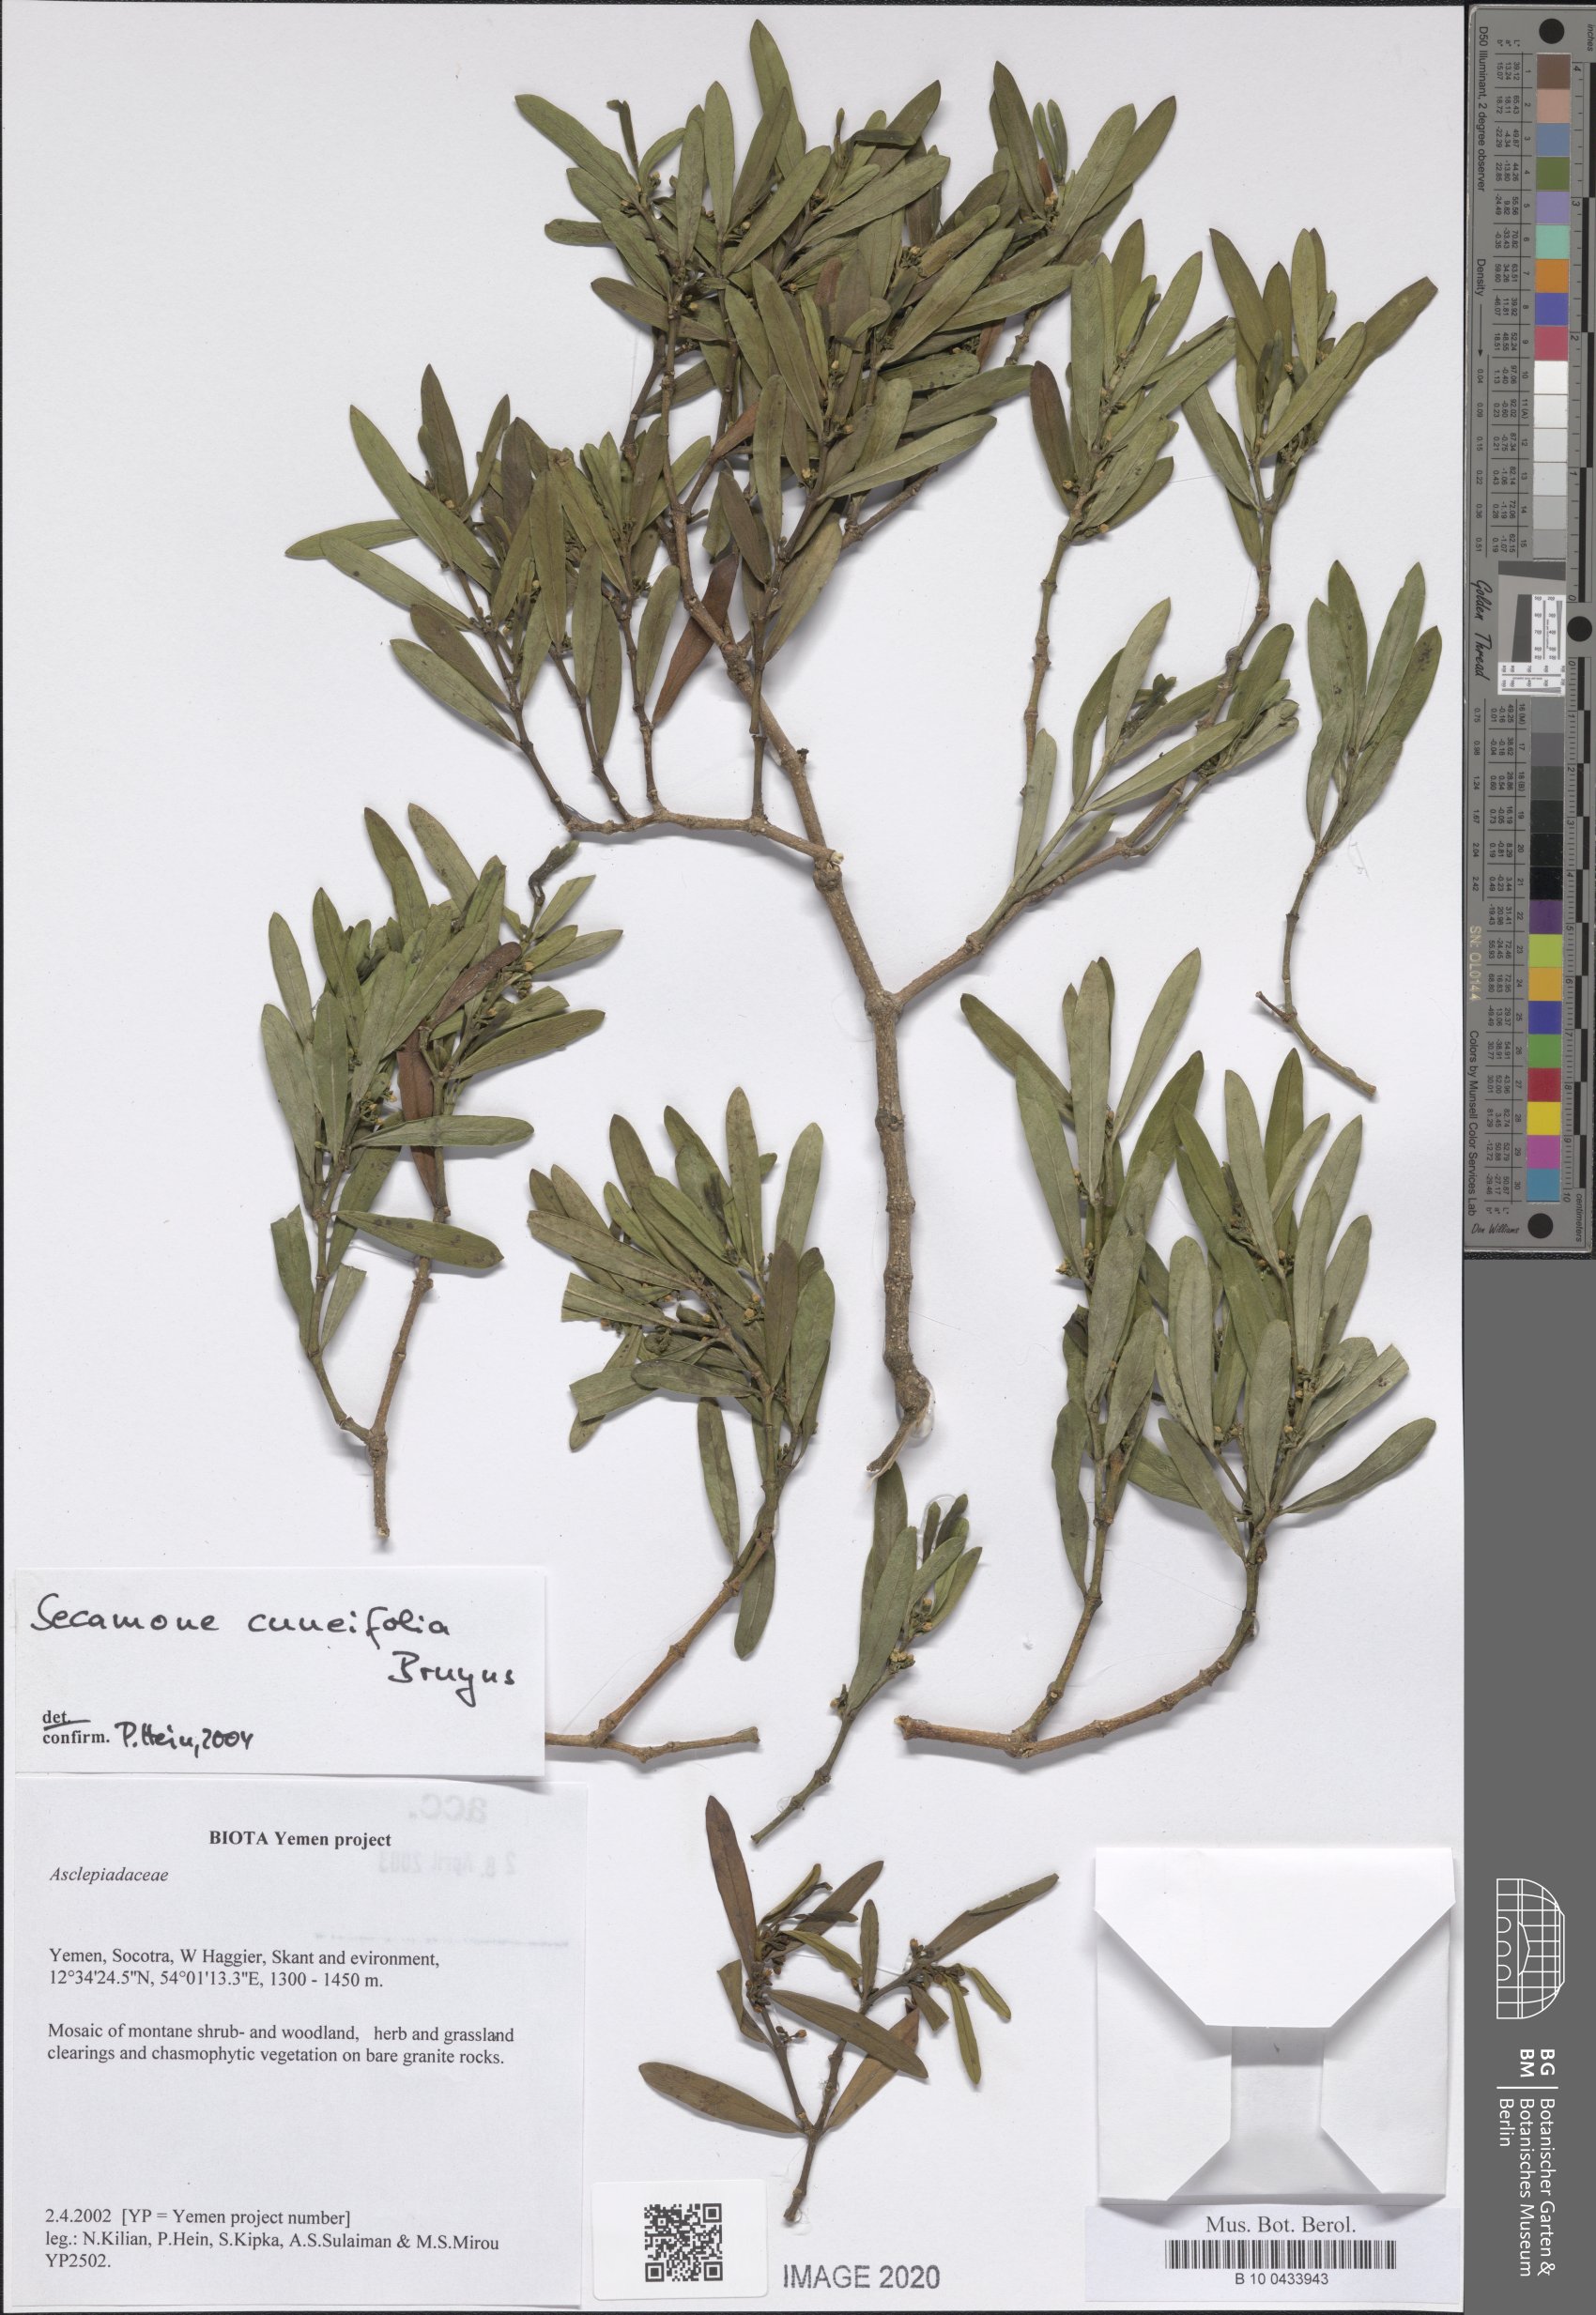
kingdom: Plantae
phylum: Tracheophyta
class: Magnoliopsida
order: Gentianales
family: Apocynaceae
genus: Secamone
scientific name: Secamone cuneifolia
